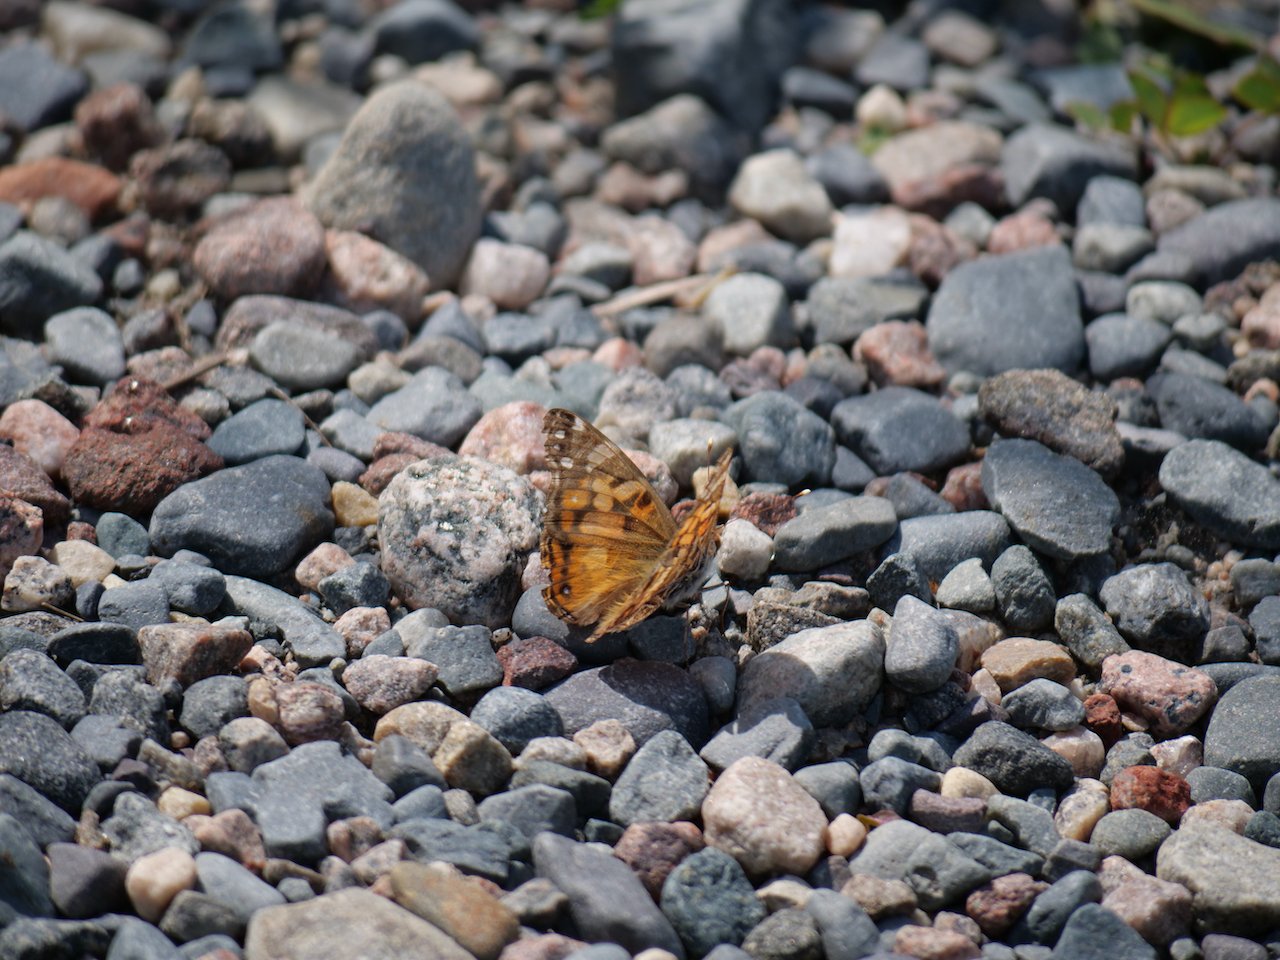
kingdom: Animalia
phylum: Arthropoda
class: Insecta
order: Lepidoptera
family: Nymphalidae
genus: Vanessa
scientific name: Vanessa virginiensis
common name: American Lady
